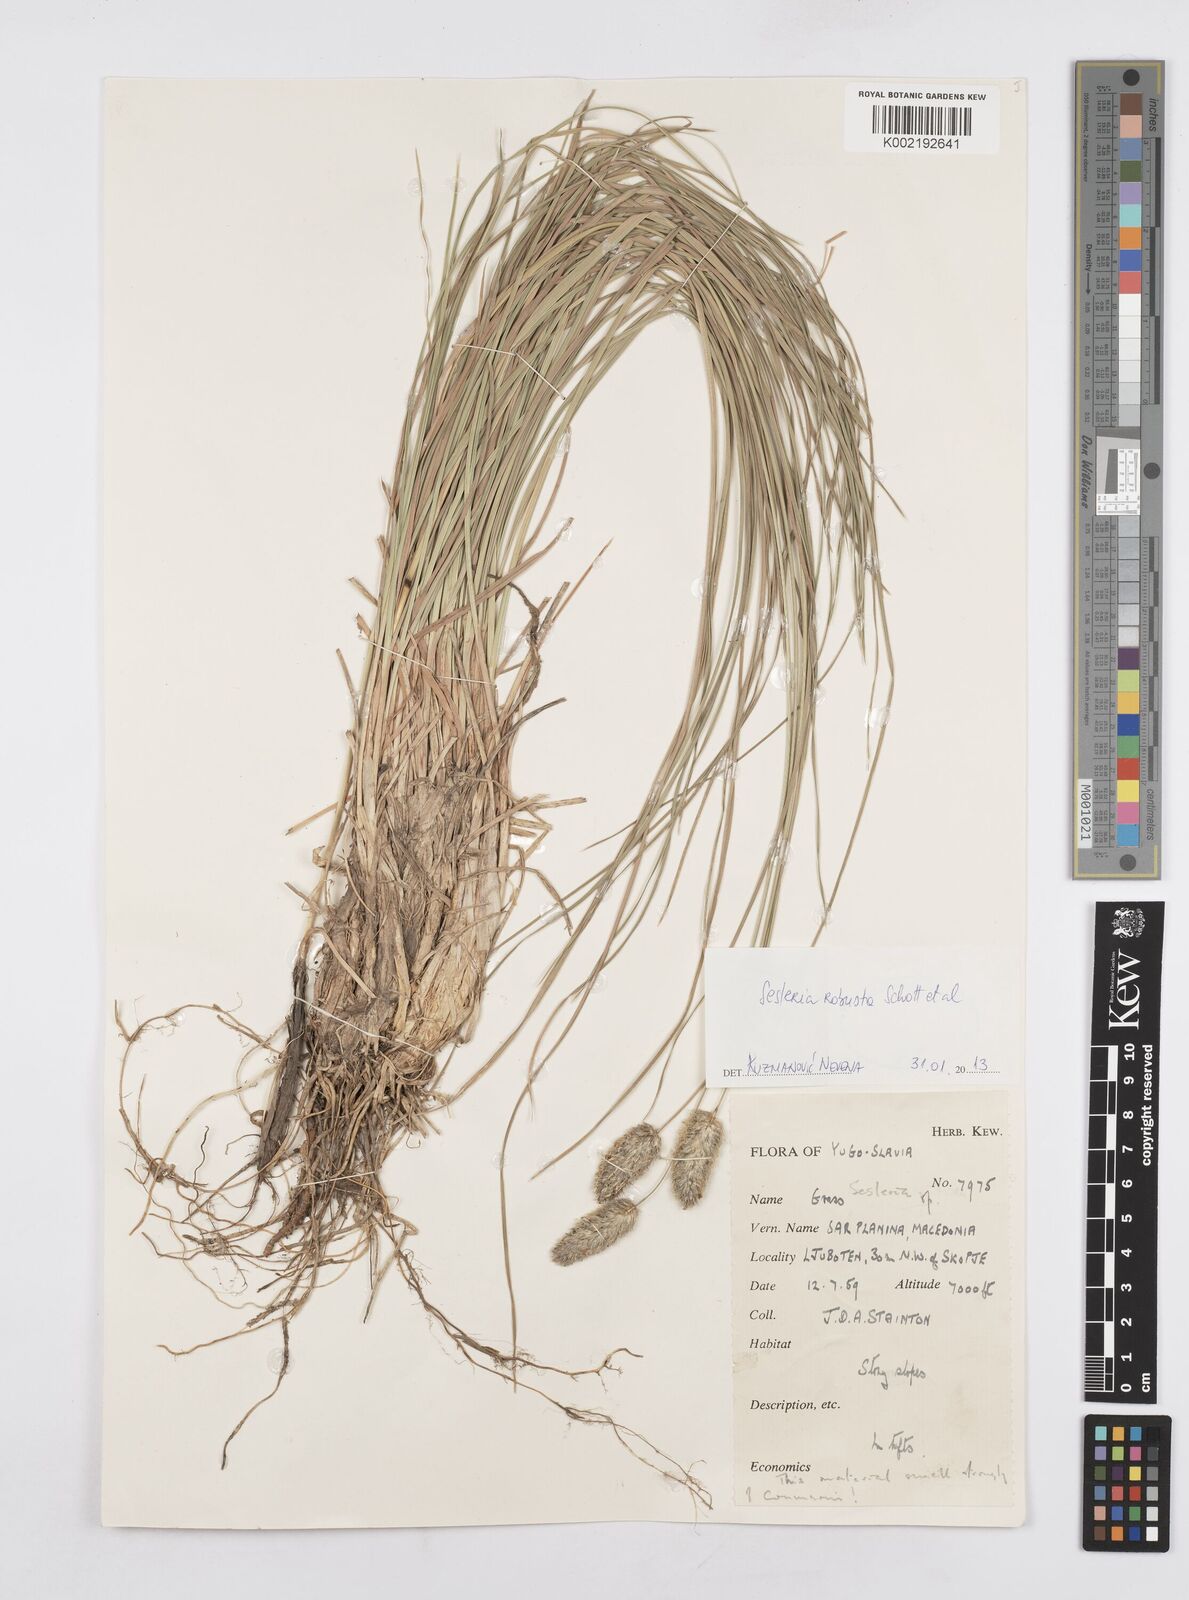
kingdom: Plantae
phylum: Tracheophyta
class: Liliopsida
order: Poales
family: Poaceae
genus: Sesleria
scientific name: Sesleria robusta
